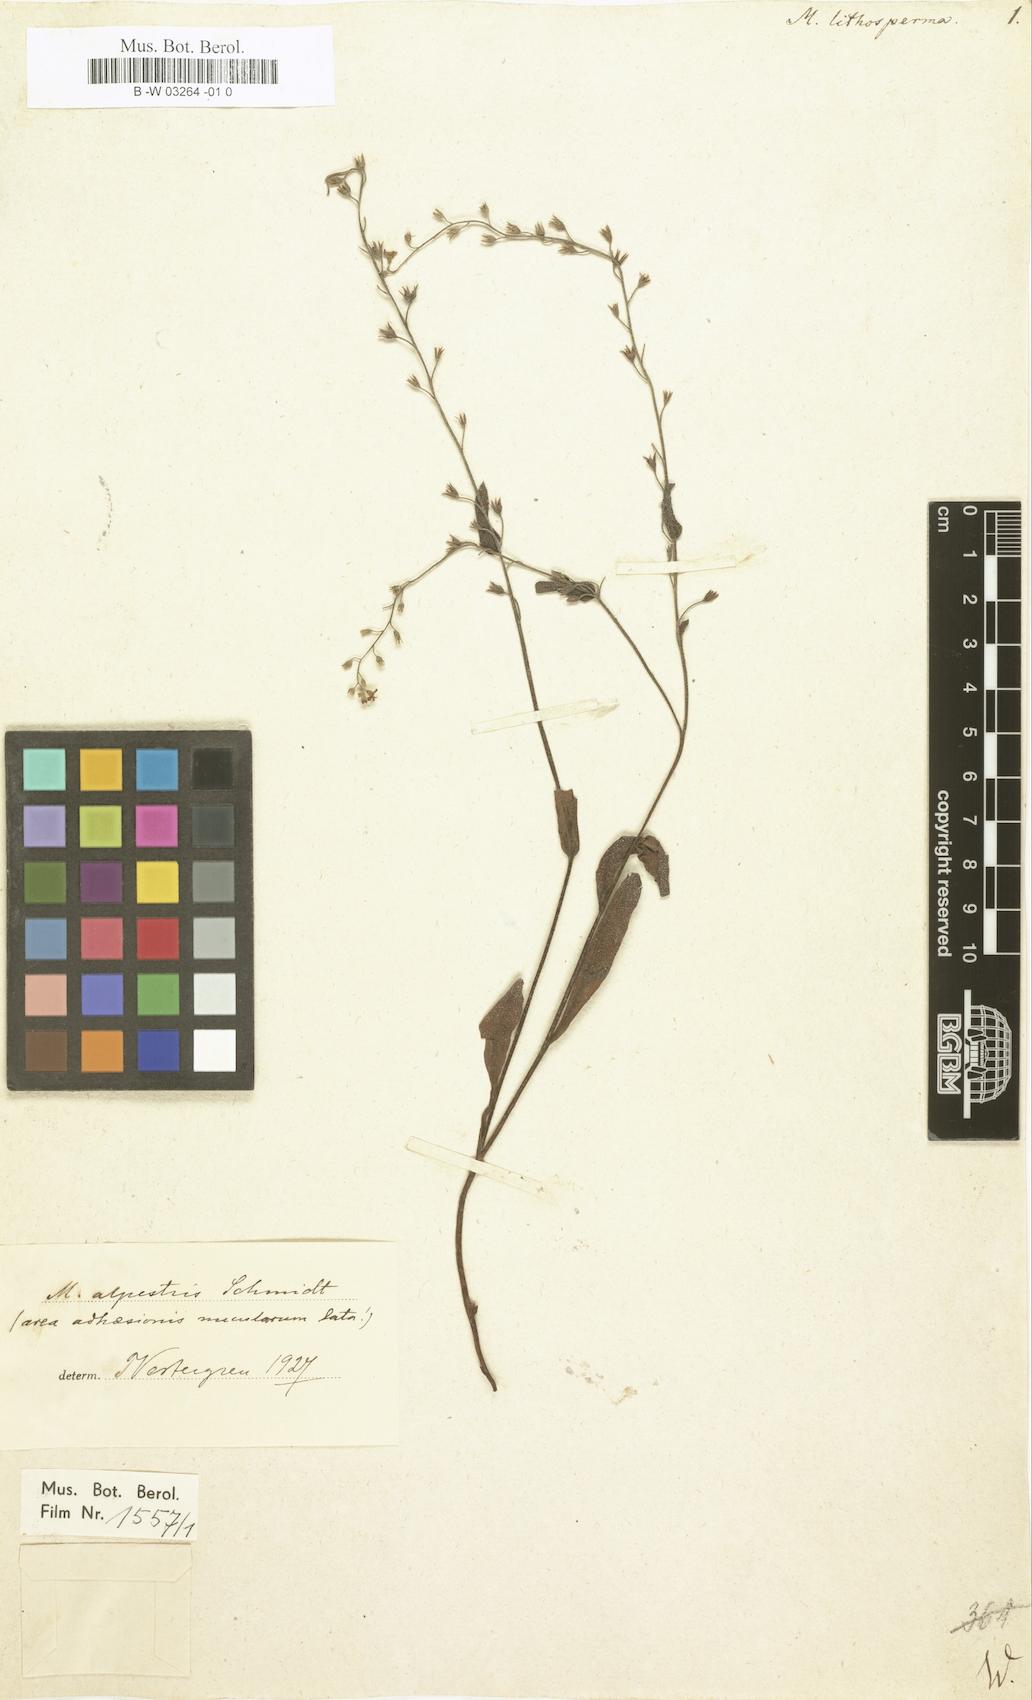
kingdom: Plantae
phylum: Tracheophyta
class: Magnoliopsida
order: Boraginales
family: Boraginaceae
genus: Myosotis
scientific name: Myosotis
